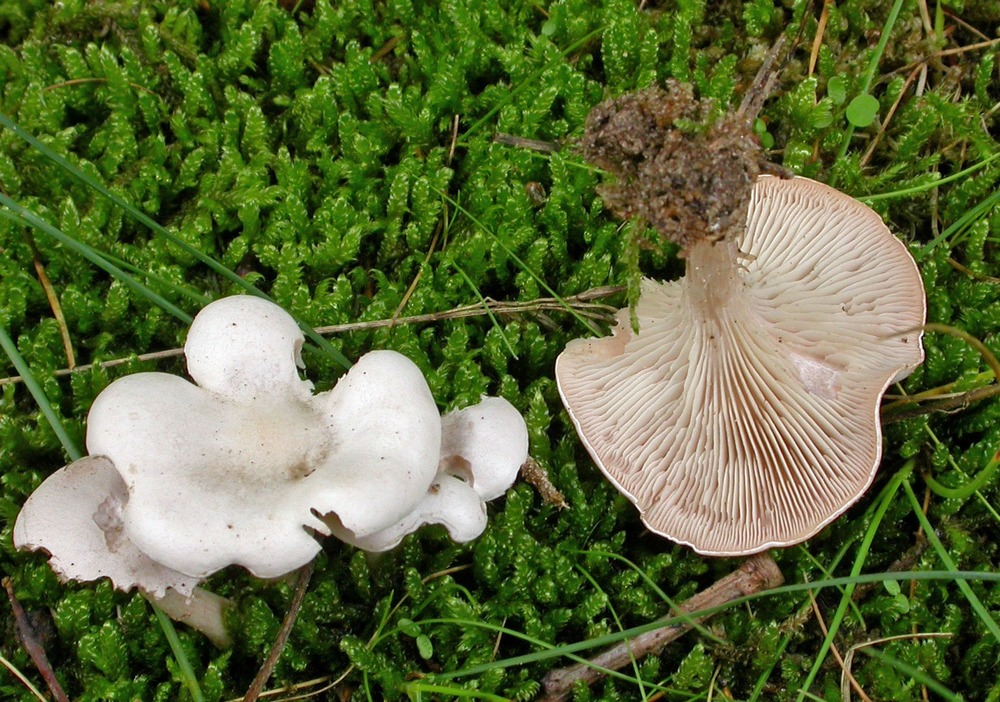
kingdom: Fungi
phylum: Basidiomycota
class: Agaricomycetes
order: Agaricales
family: Tricholomataceae
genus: Leucocybe
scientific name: Leucocybe candicans
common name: kridt-tragthat
